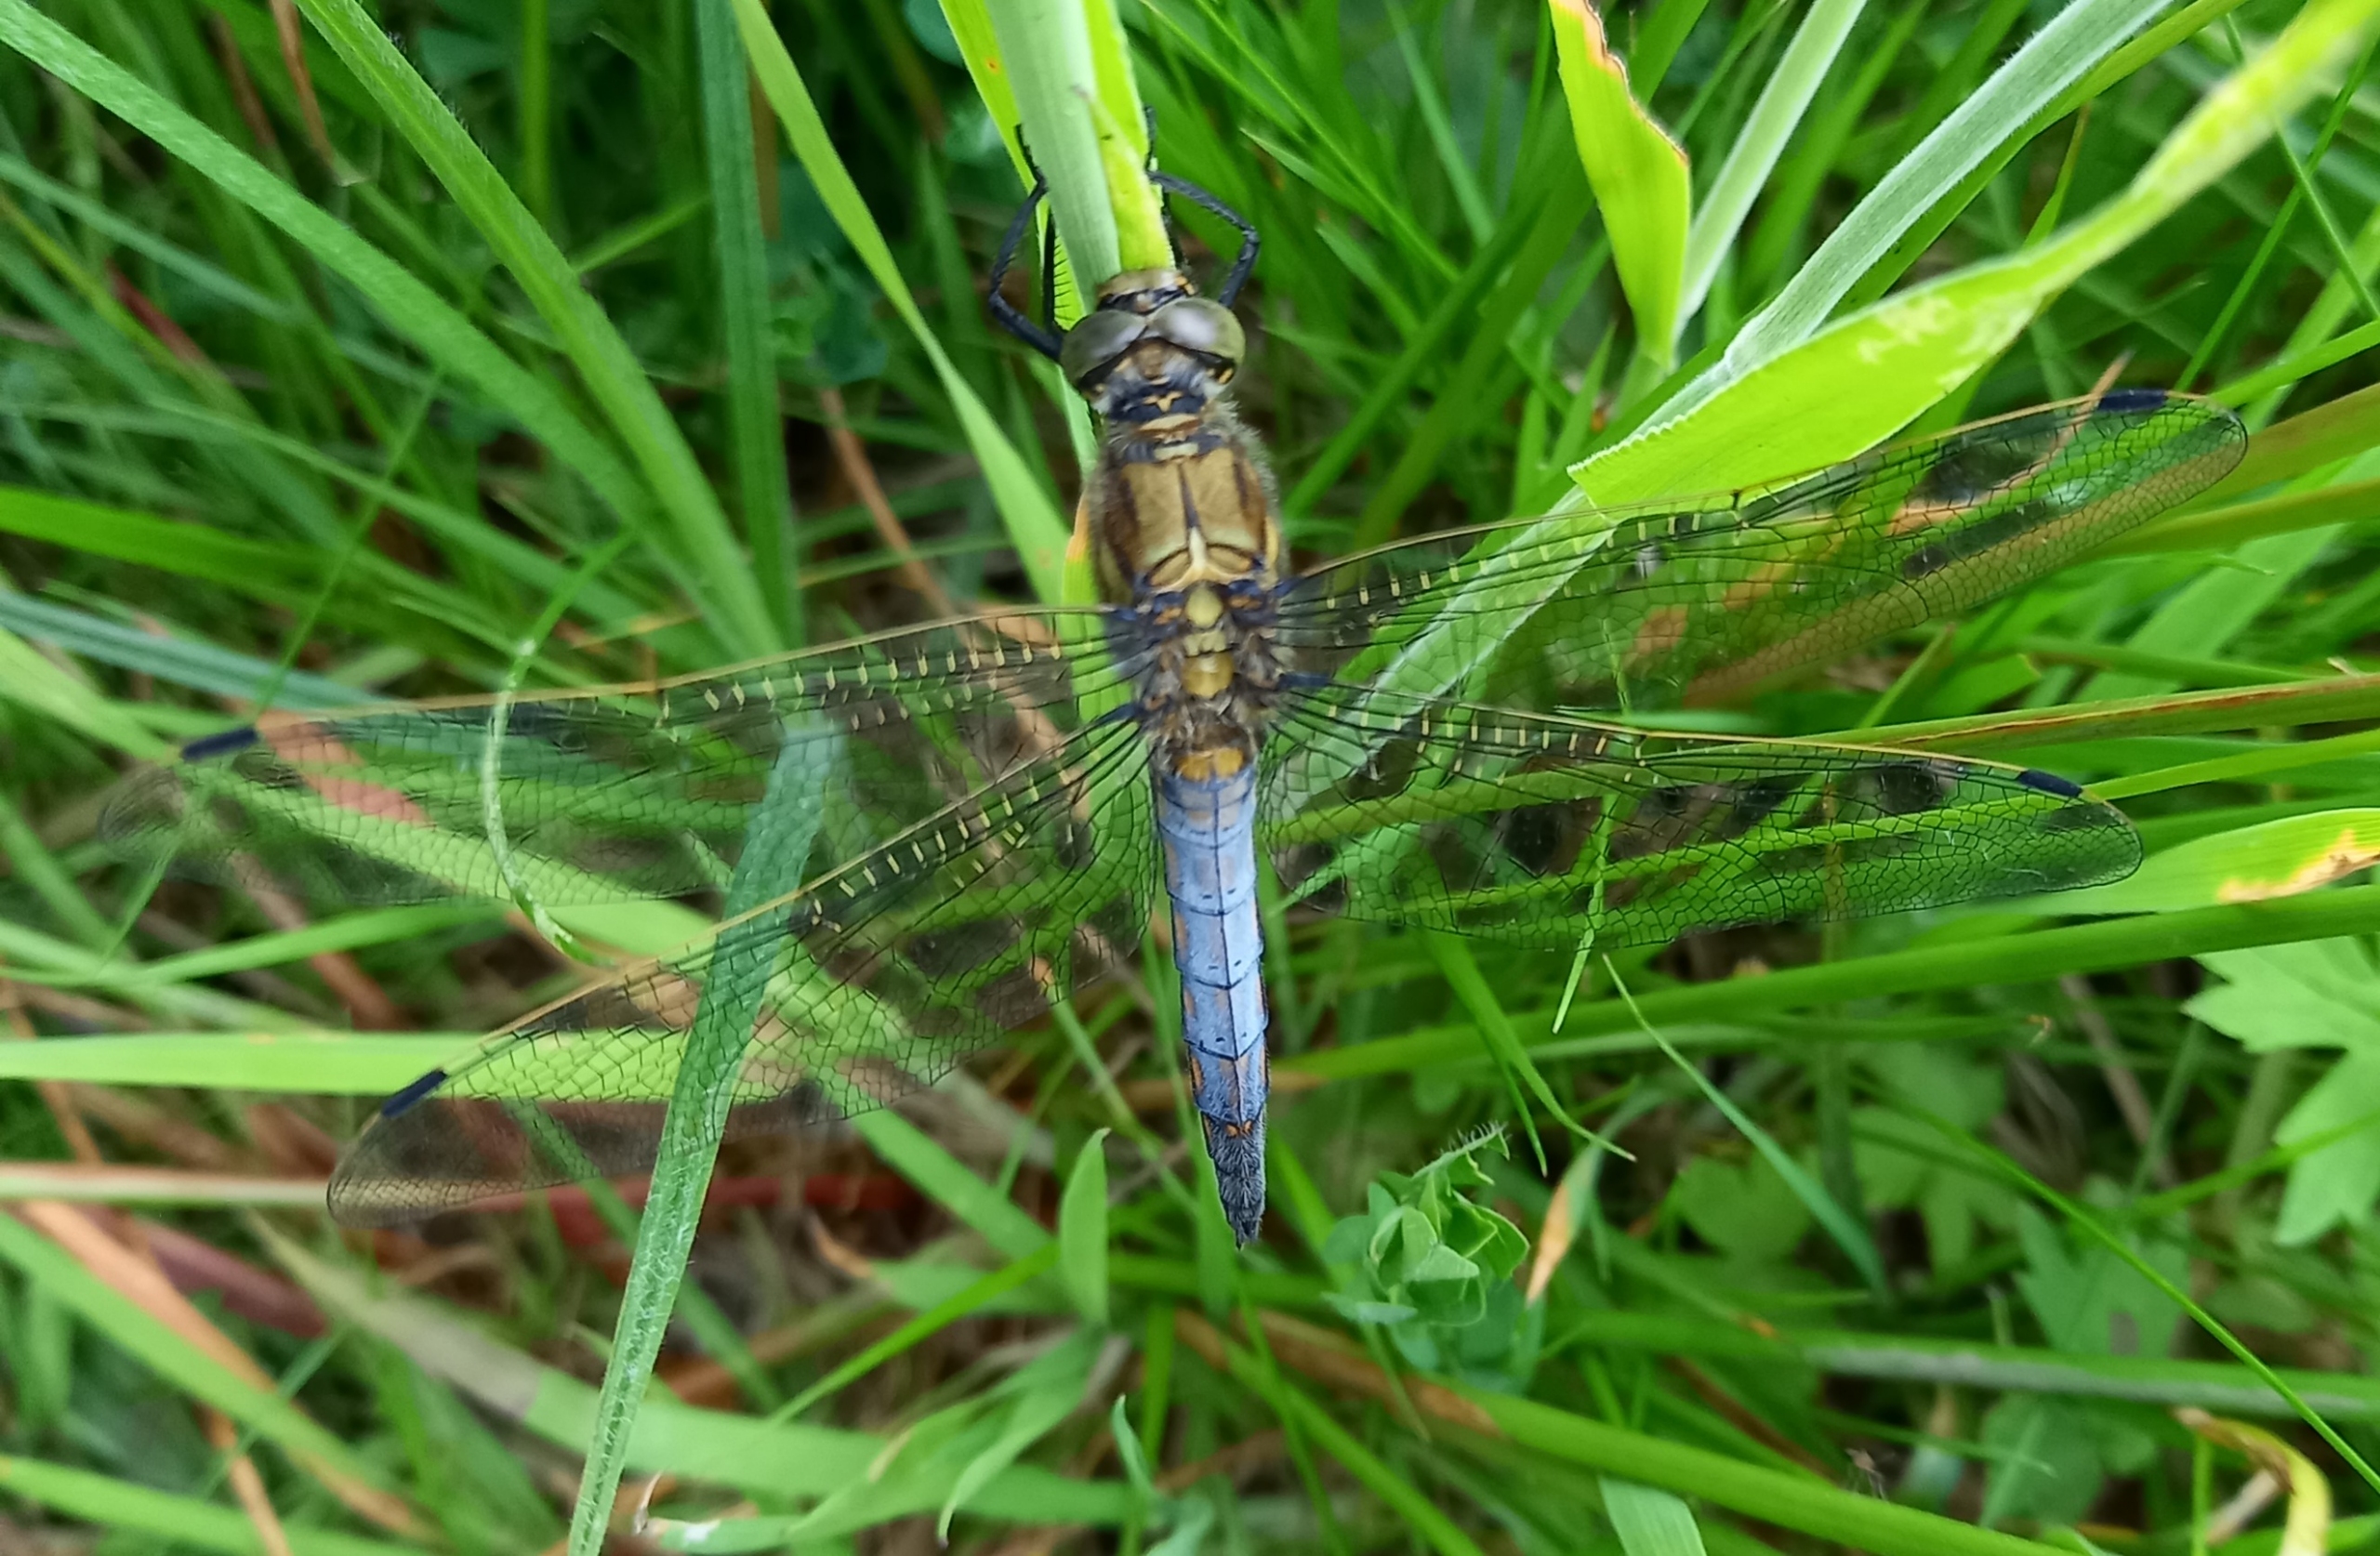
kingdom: Animalia
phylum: Arthropoda
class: Insecta
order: Odonata
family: Libellulidae
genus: Orthetrum
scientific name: Orthetrum cancellatum
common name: Stor blåpil
